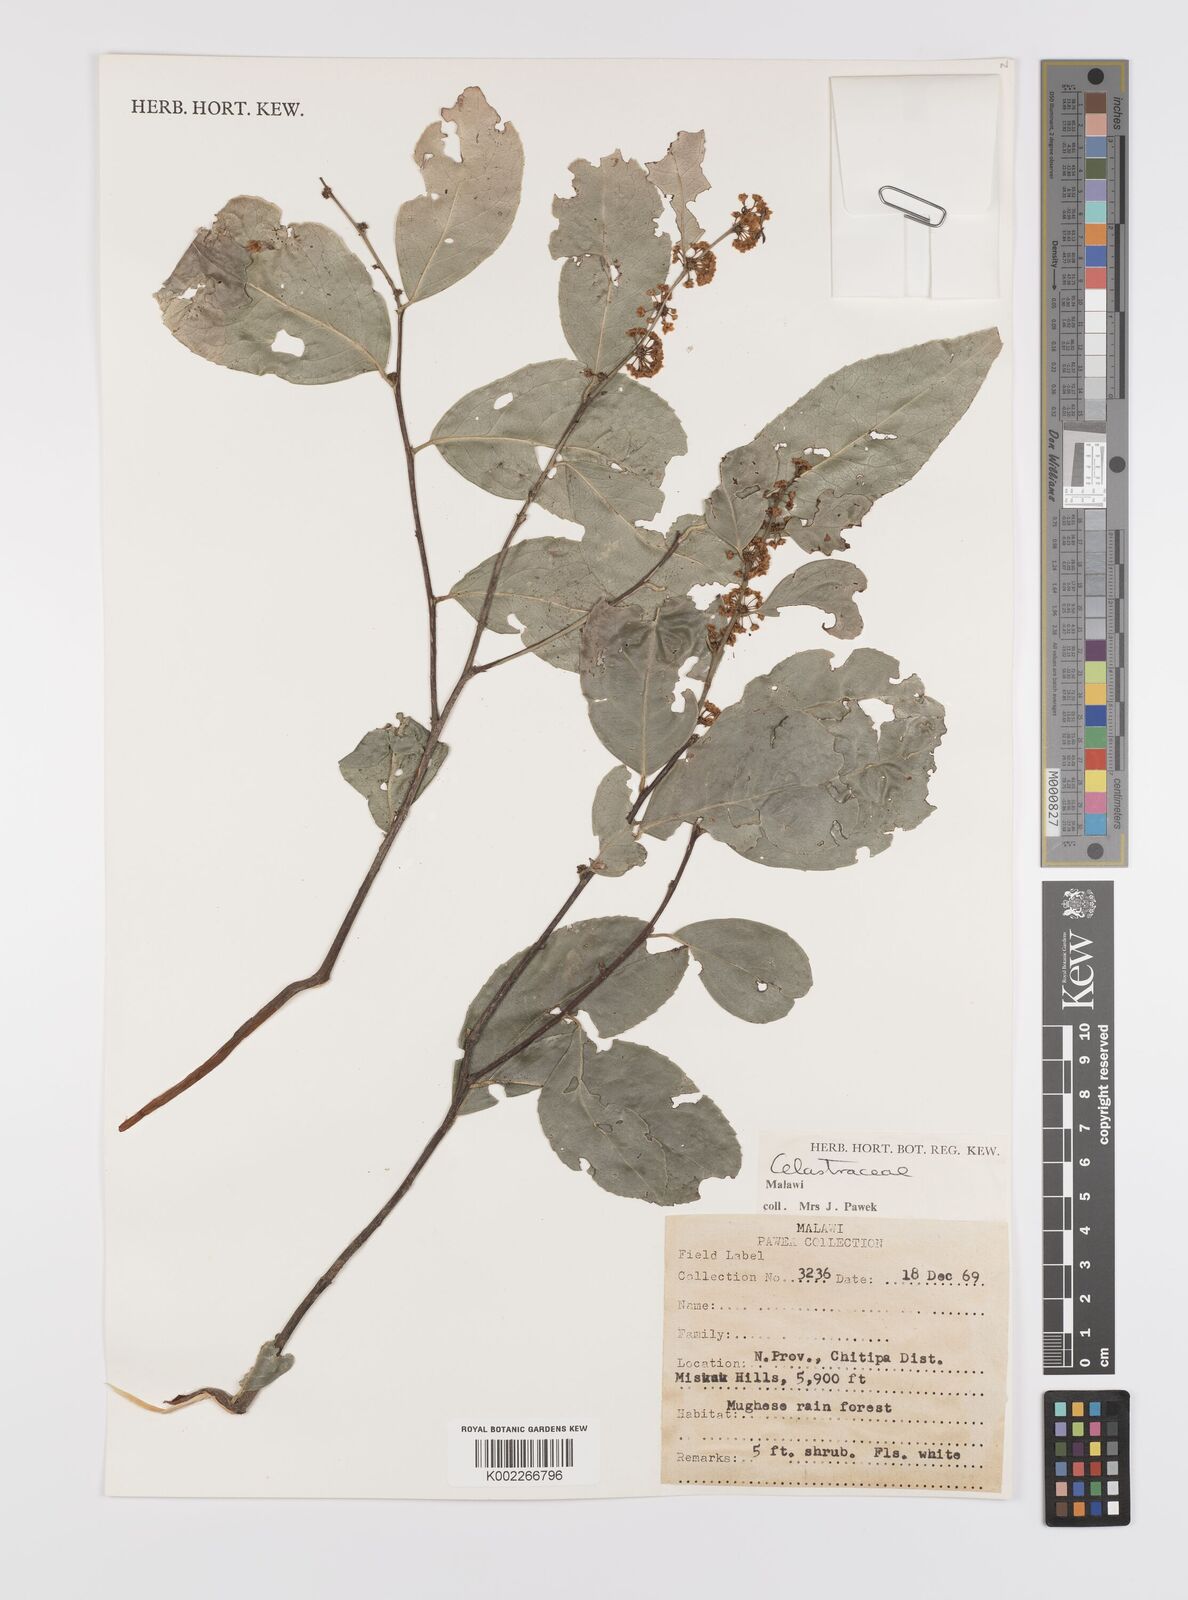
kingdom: Plantae
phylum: Tracheophyta
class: Magnoliopsida
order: Celastrales
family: Celastraceae
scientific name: Celastraceae
